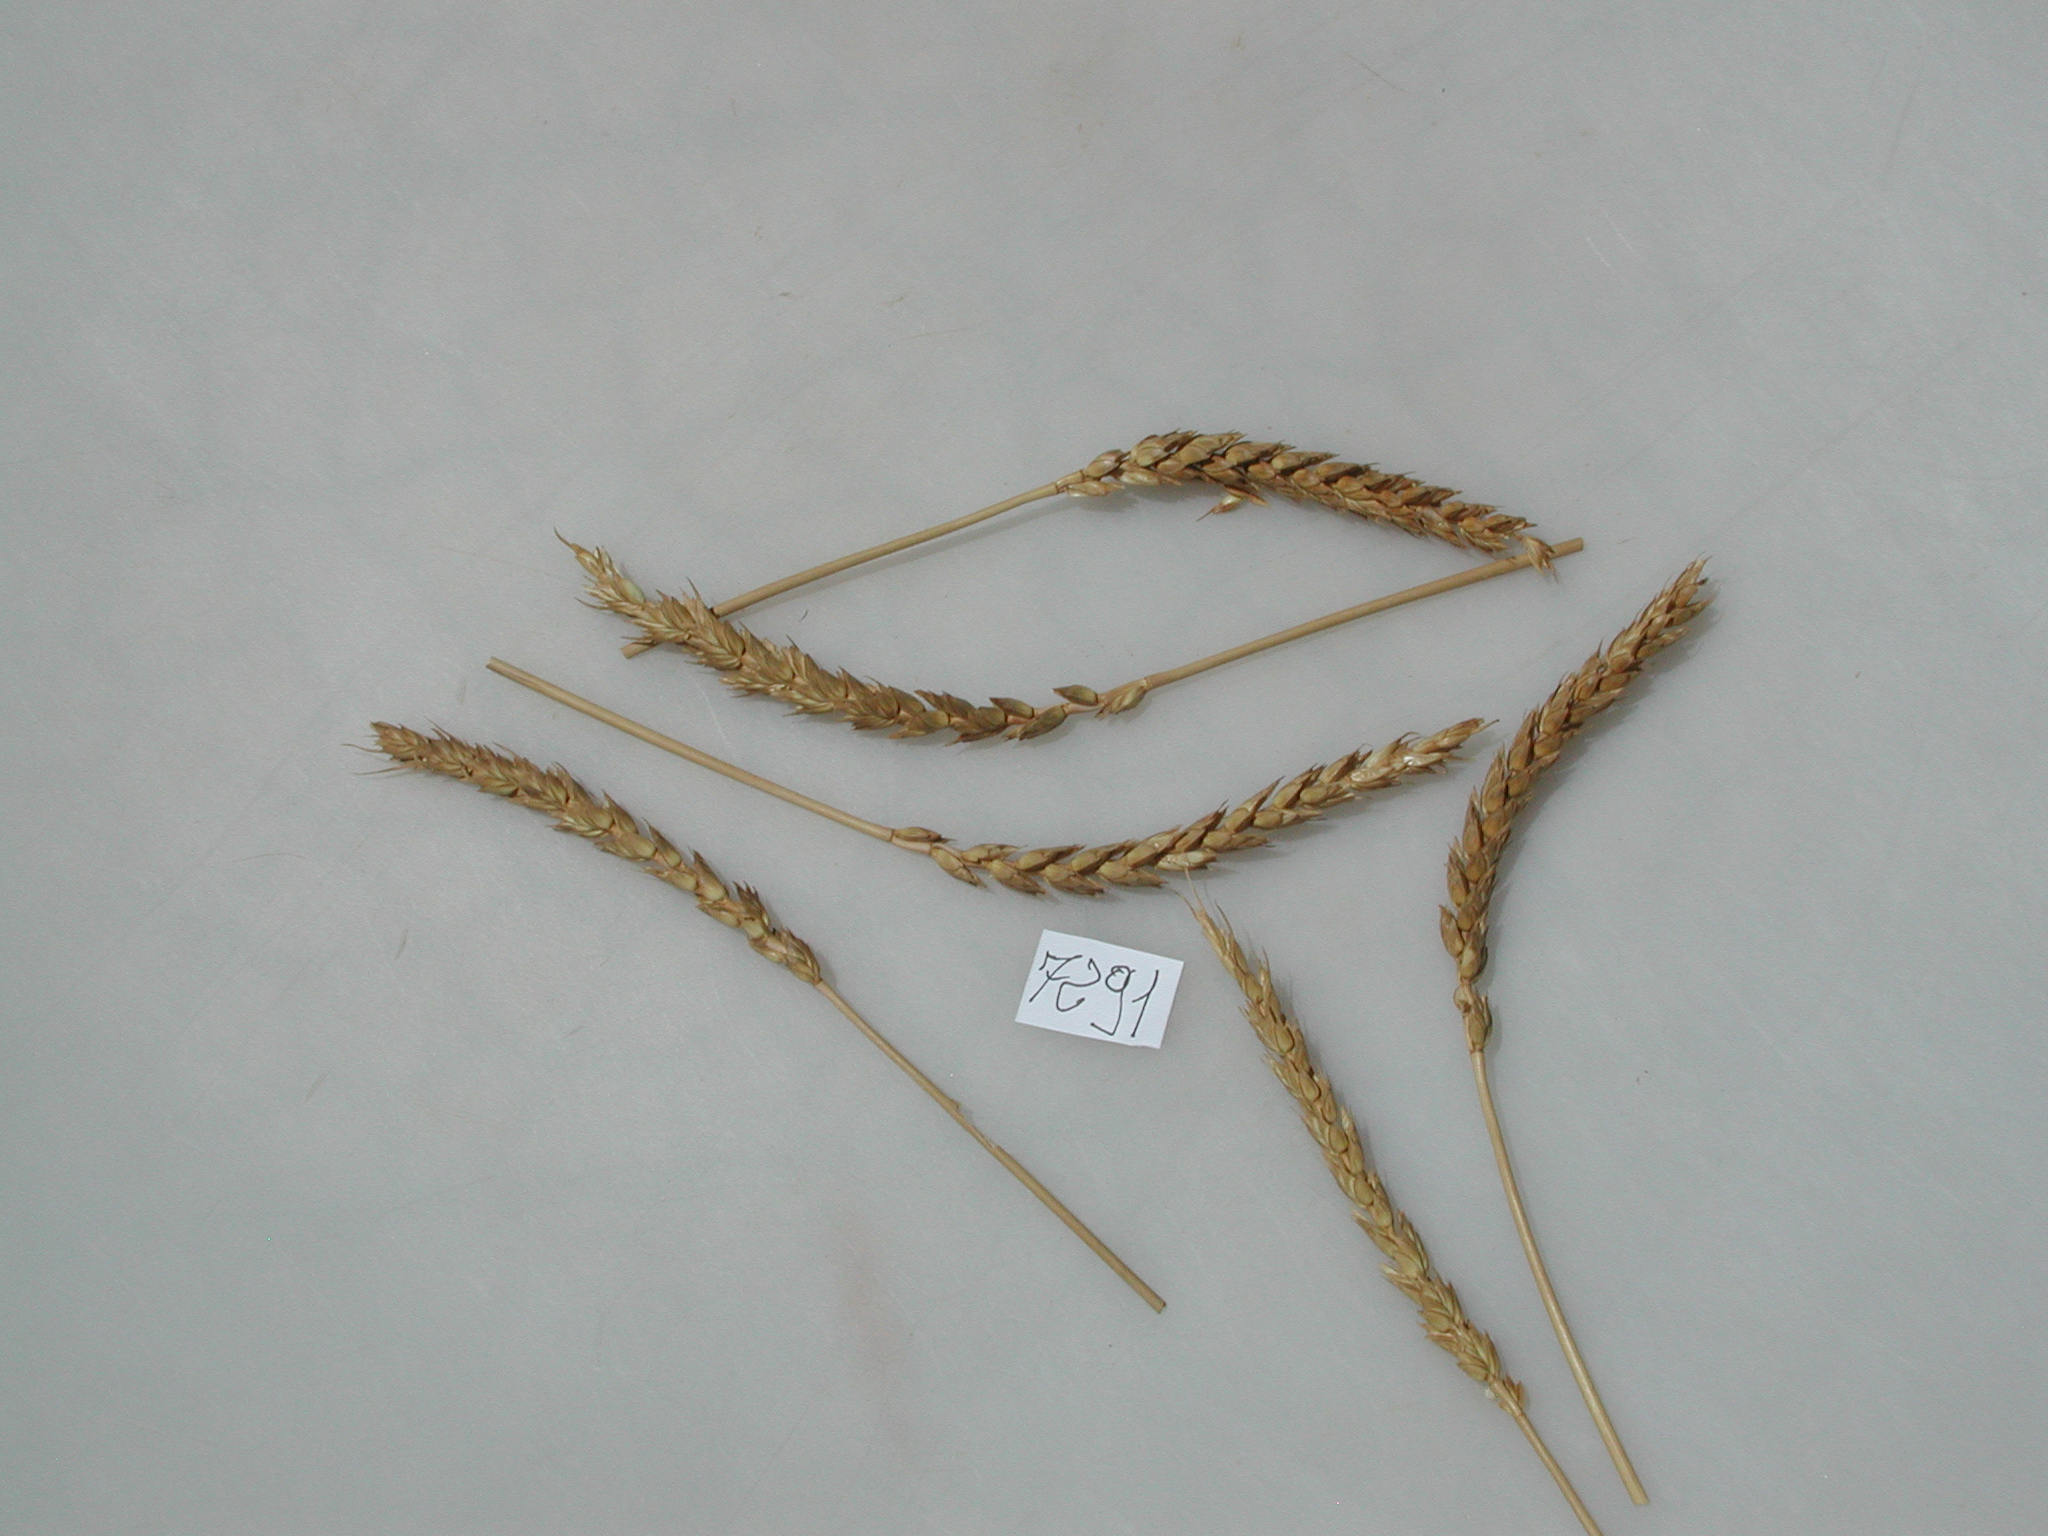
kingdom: Plantae
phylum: Tracheophyta
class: Liliopsida
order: Poales
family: Poaceae
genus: Triticum
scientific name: Triticum aestivum
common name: Wheat
